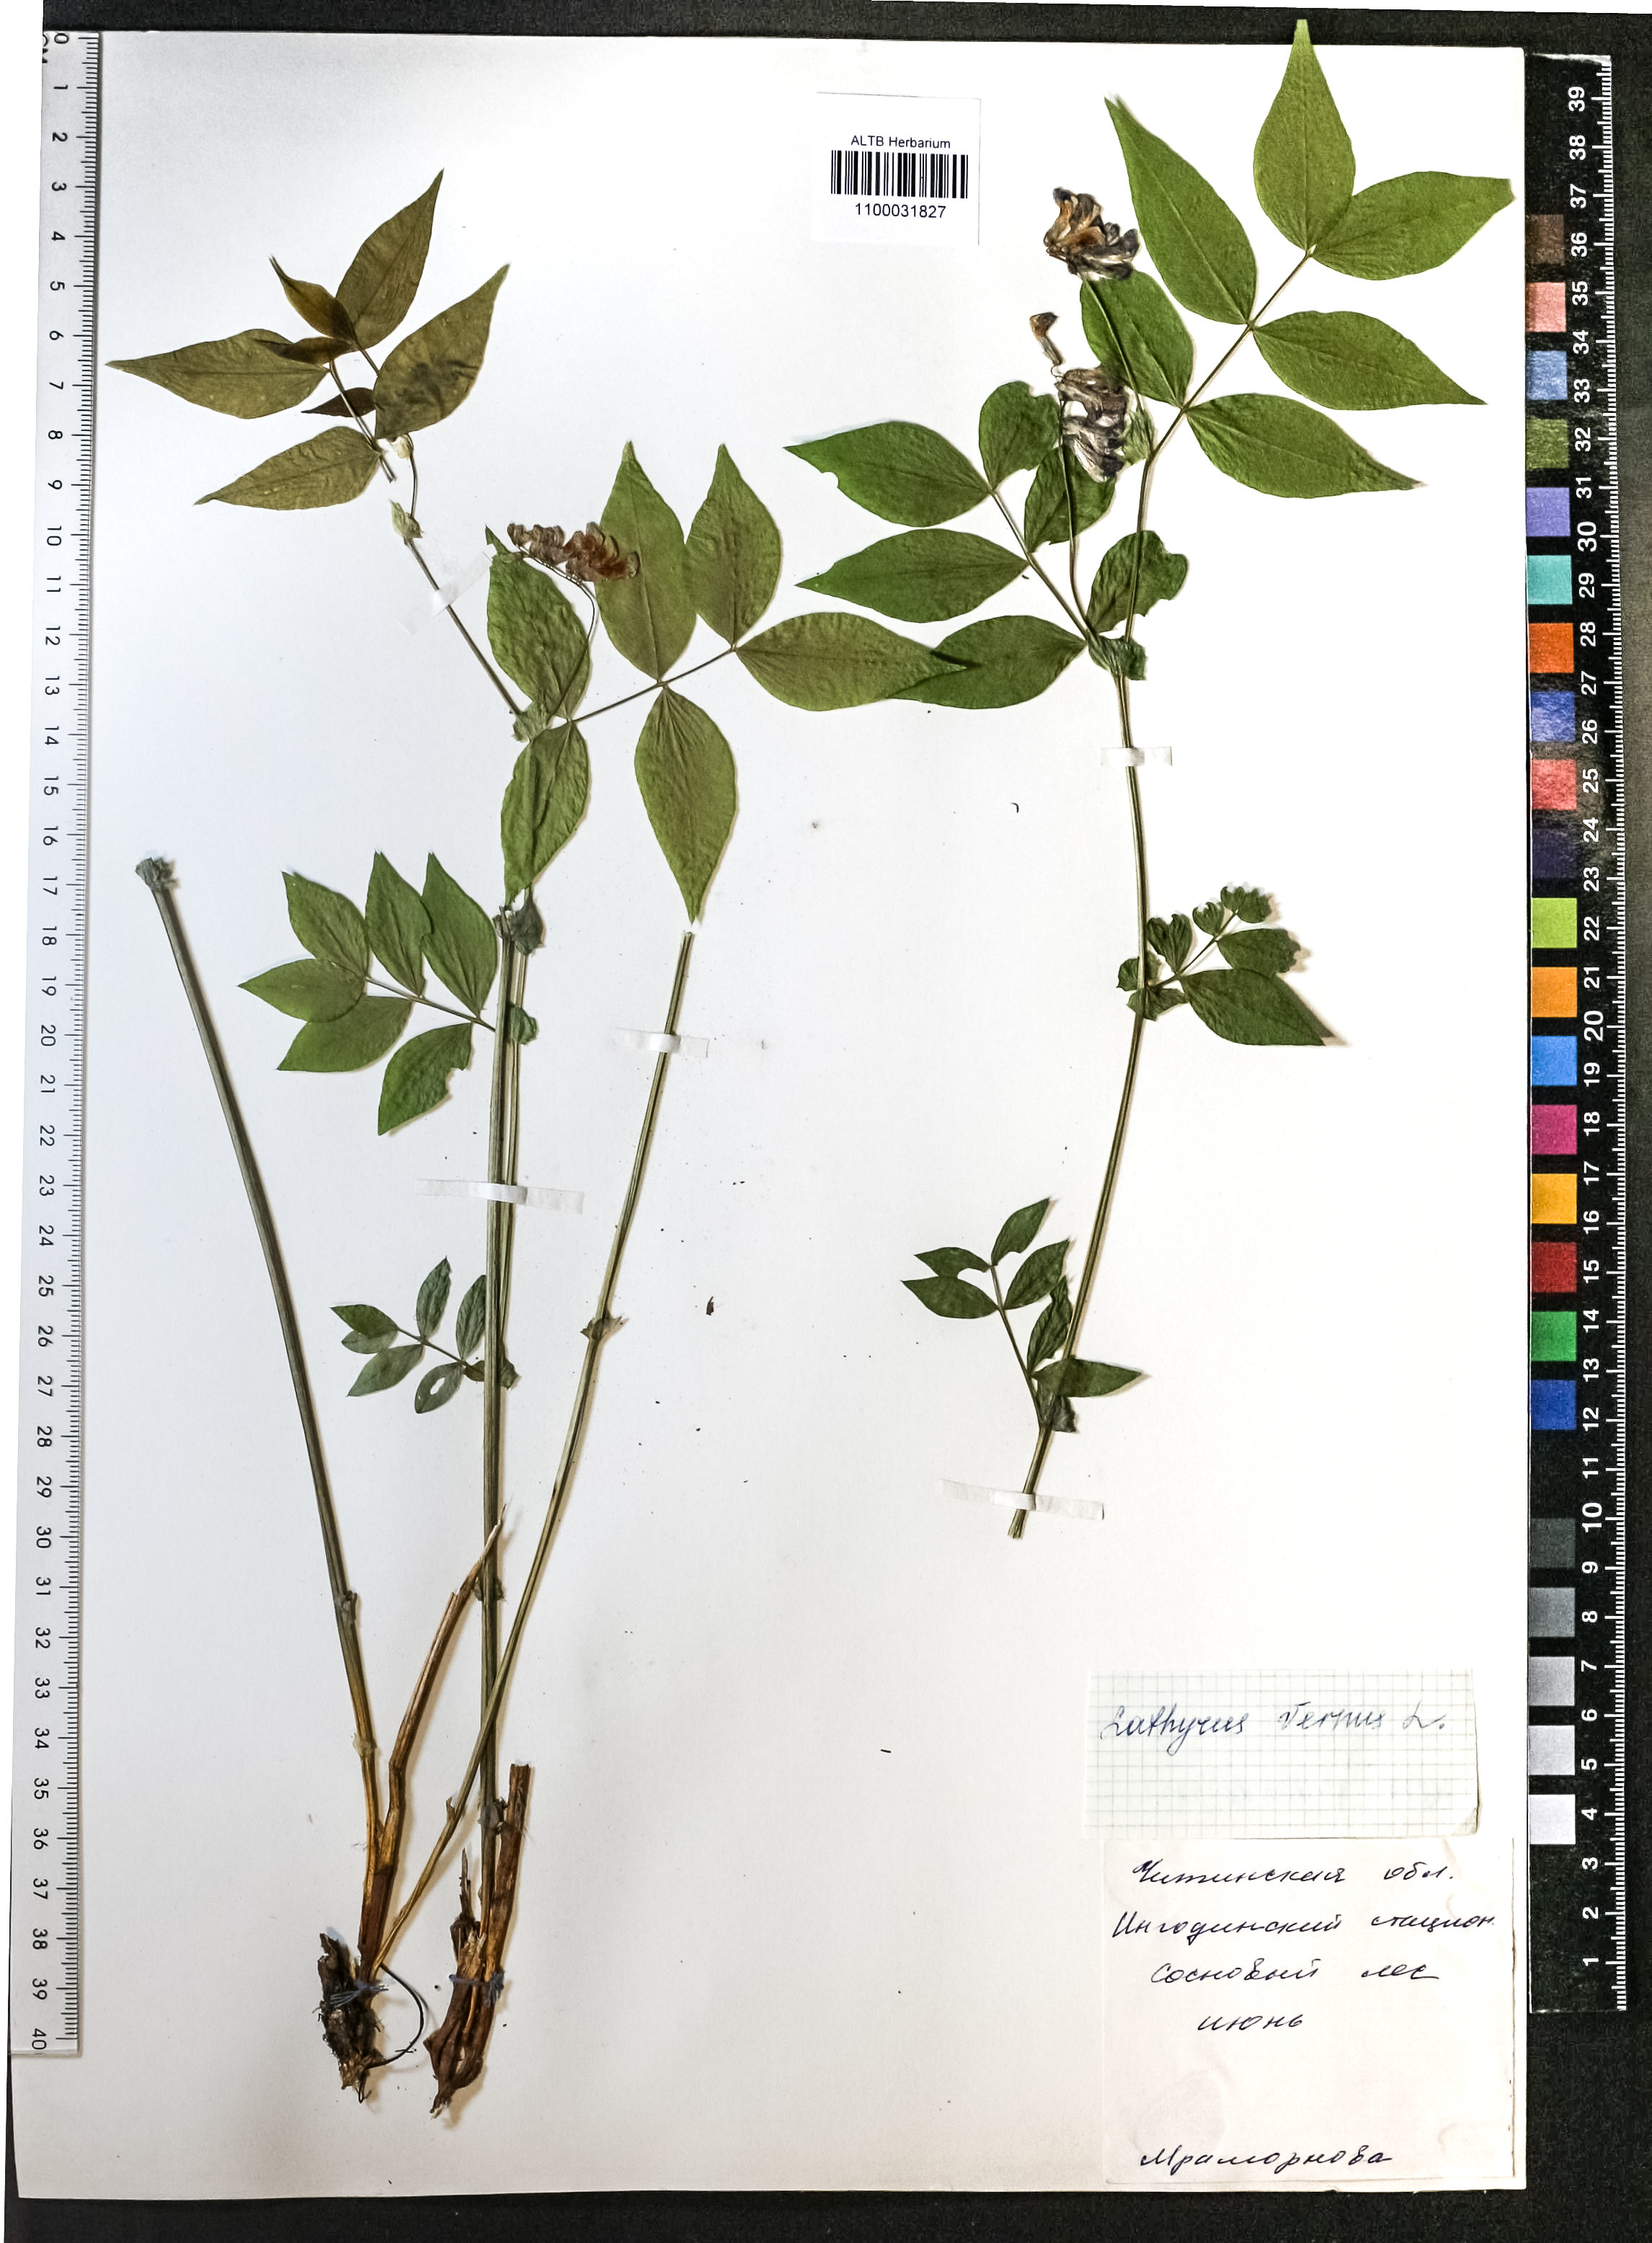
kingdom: Plantae
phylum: Tracheophyta
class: Magnoliopsida
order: Fabales
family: Fabaceae
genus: Lathyrus
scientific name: Lathyrus vernus
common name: Spring pea
